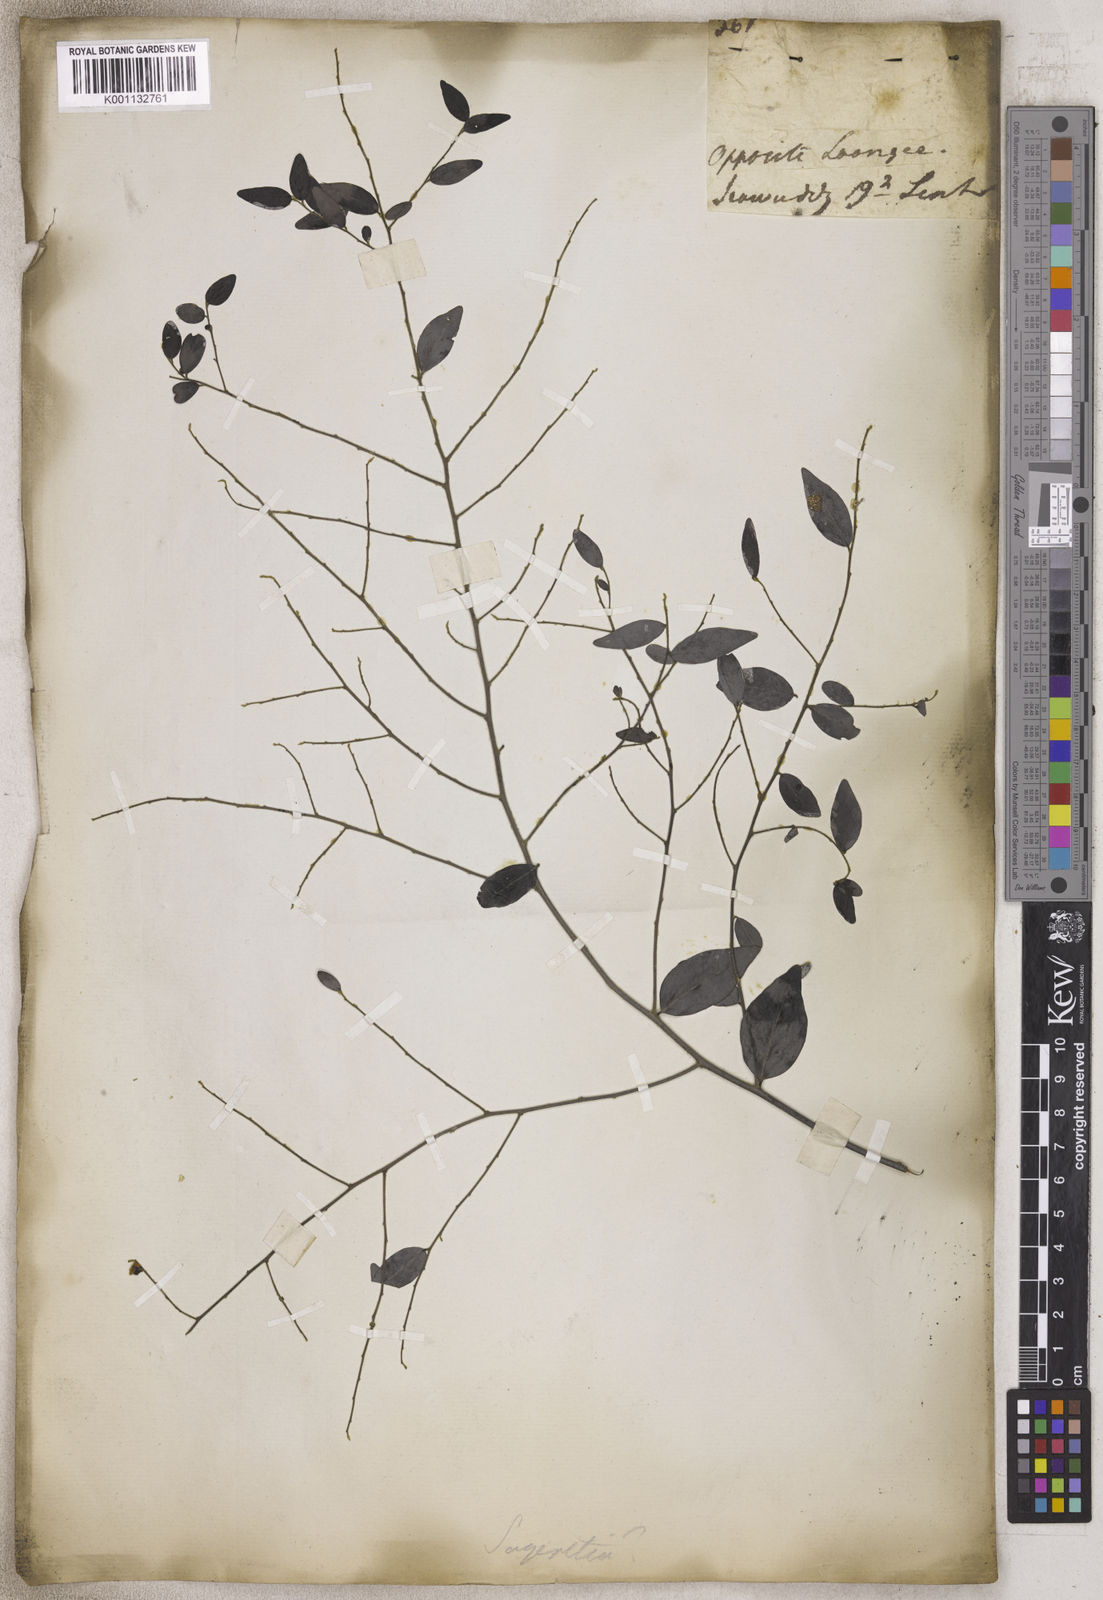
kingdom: Plantae
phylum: Tracheophyta
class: Magnoliopsida
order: Rosales
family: Rhamnaceae
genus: Sageretia
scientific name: Sageretia
